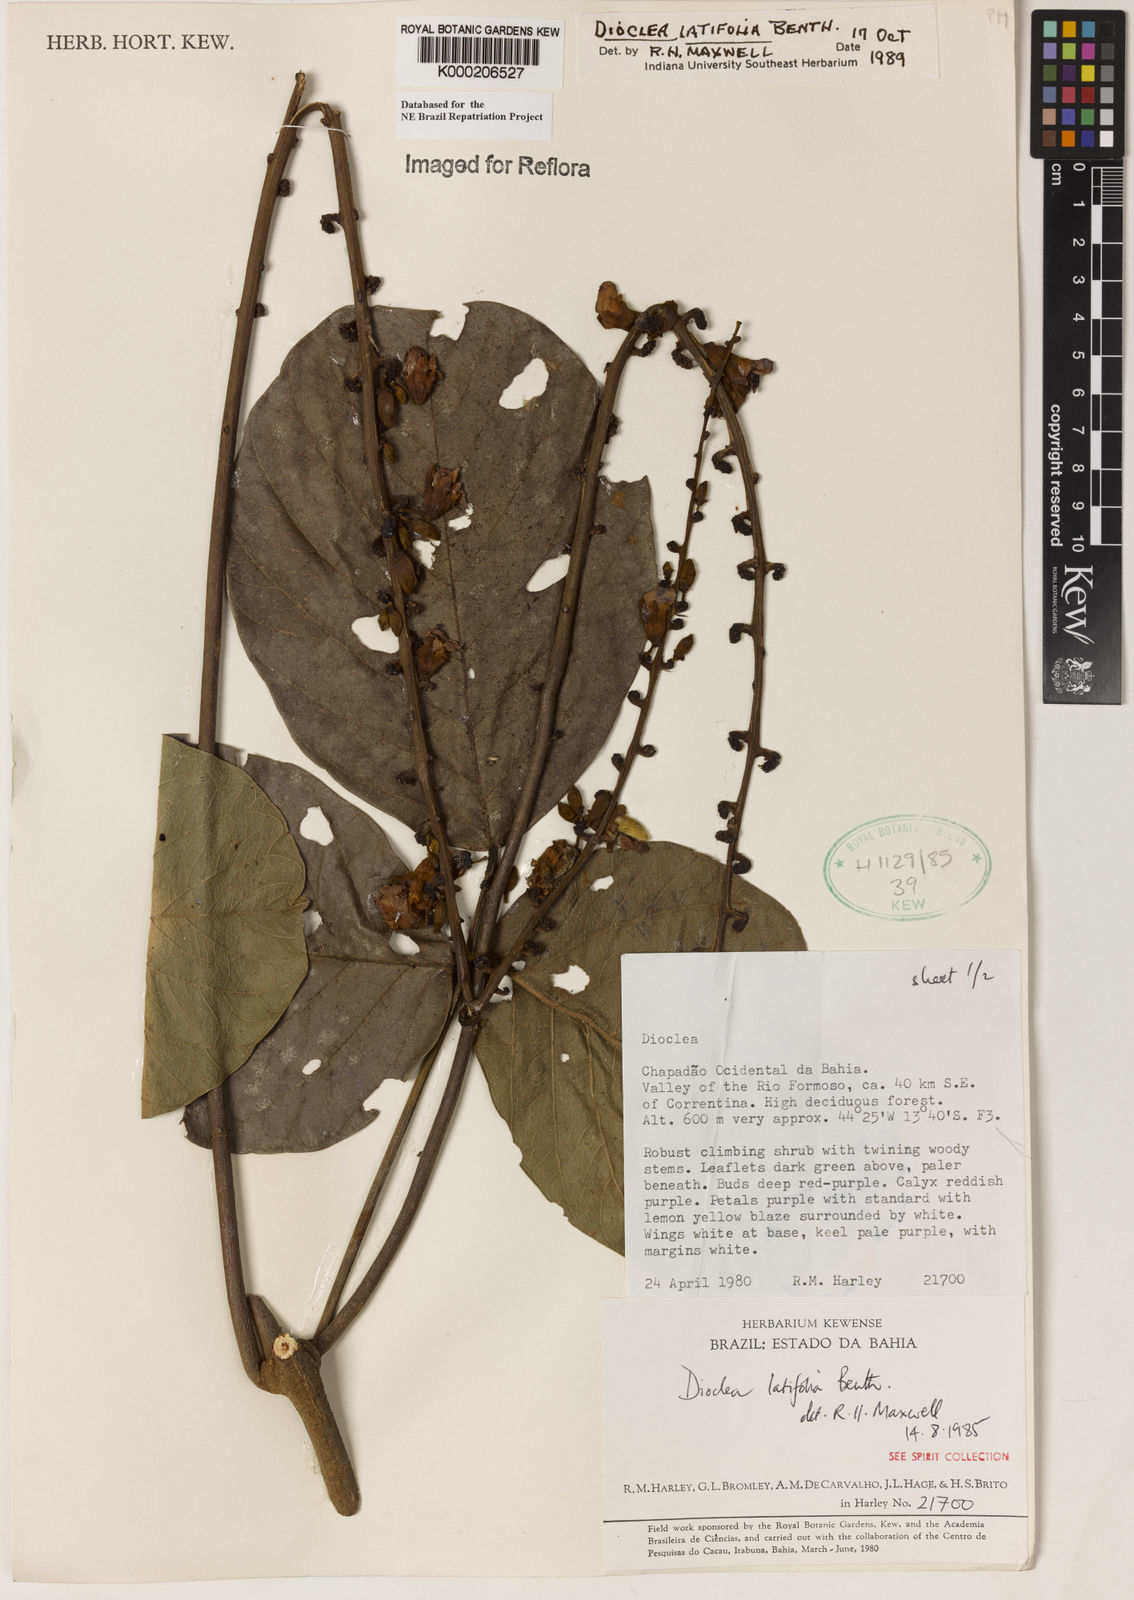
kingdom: Plantae
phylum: Tracheophyta
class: Magnoliopsida
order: Fabales
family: Fabaceae
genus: Macropsychanthus
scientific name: Macropsychanthus latifolius
